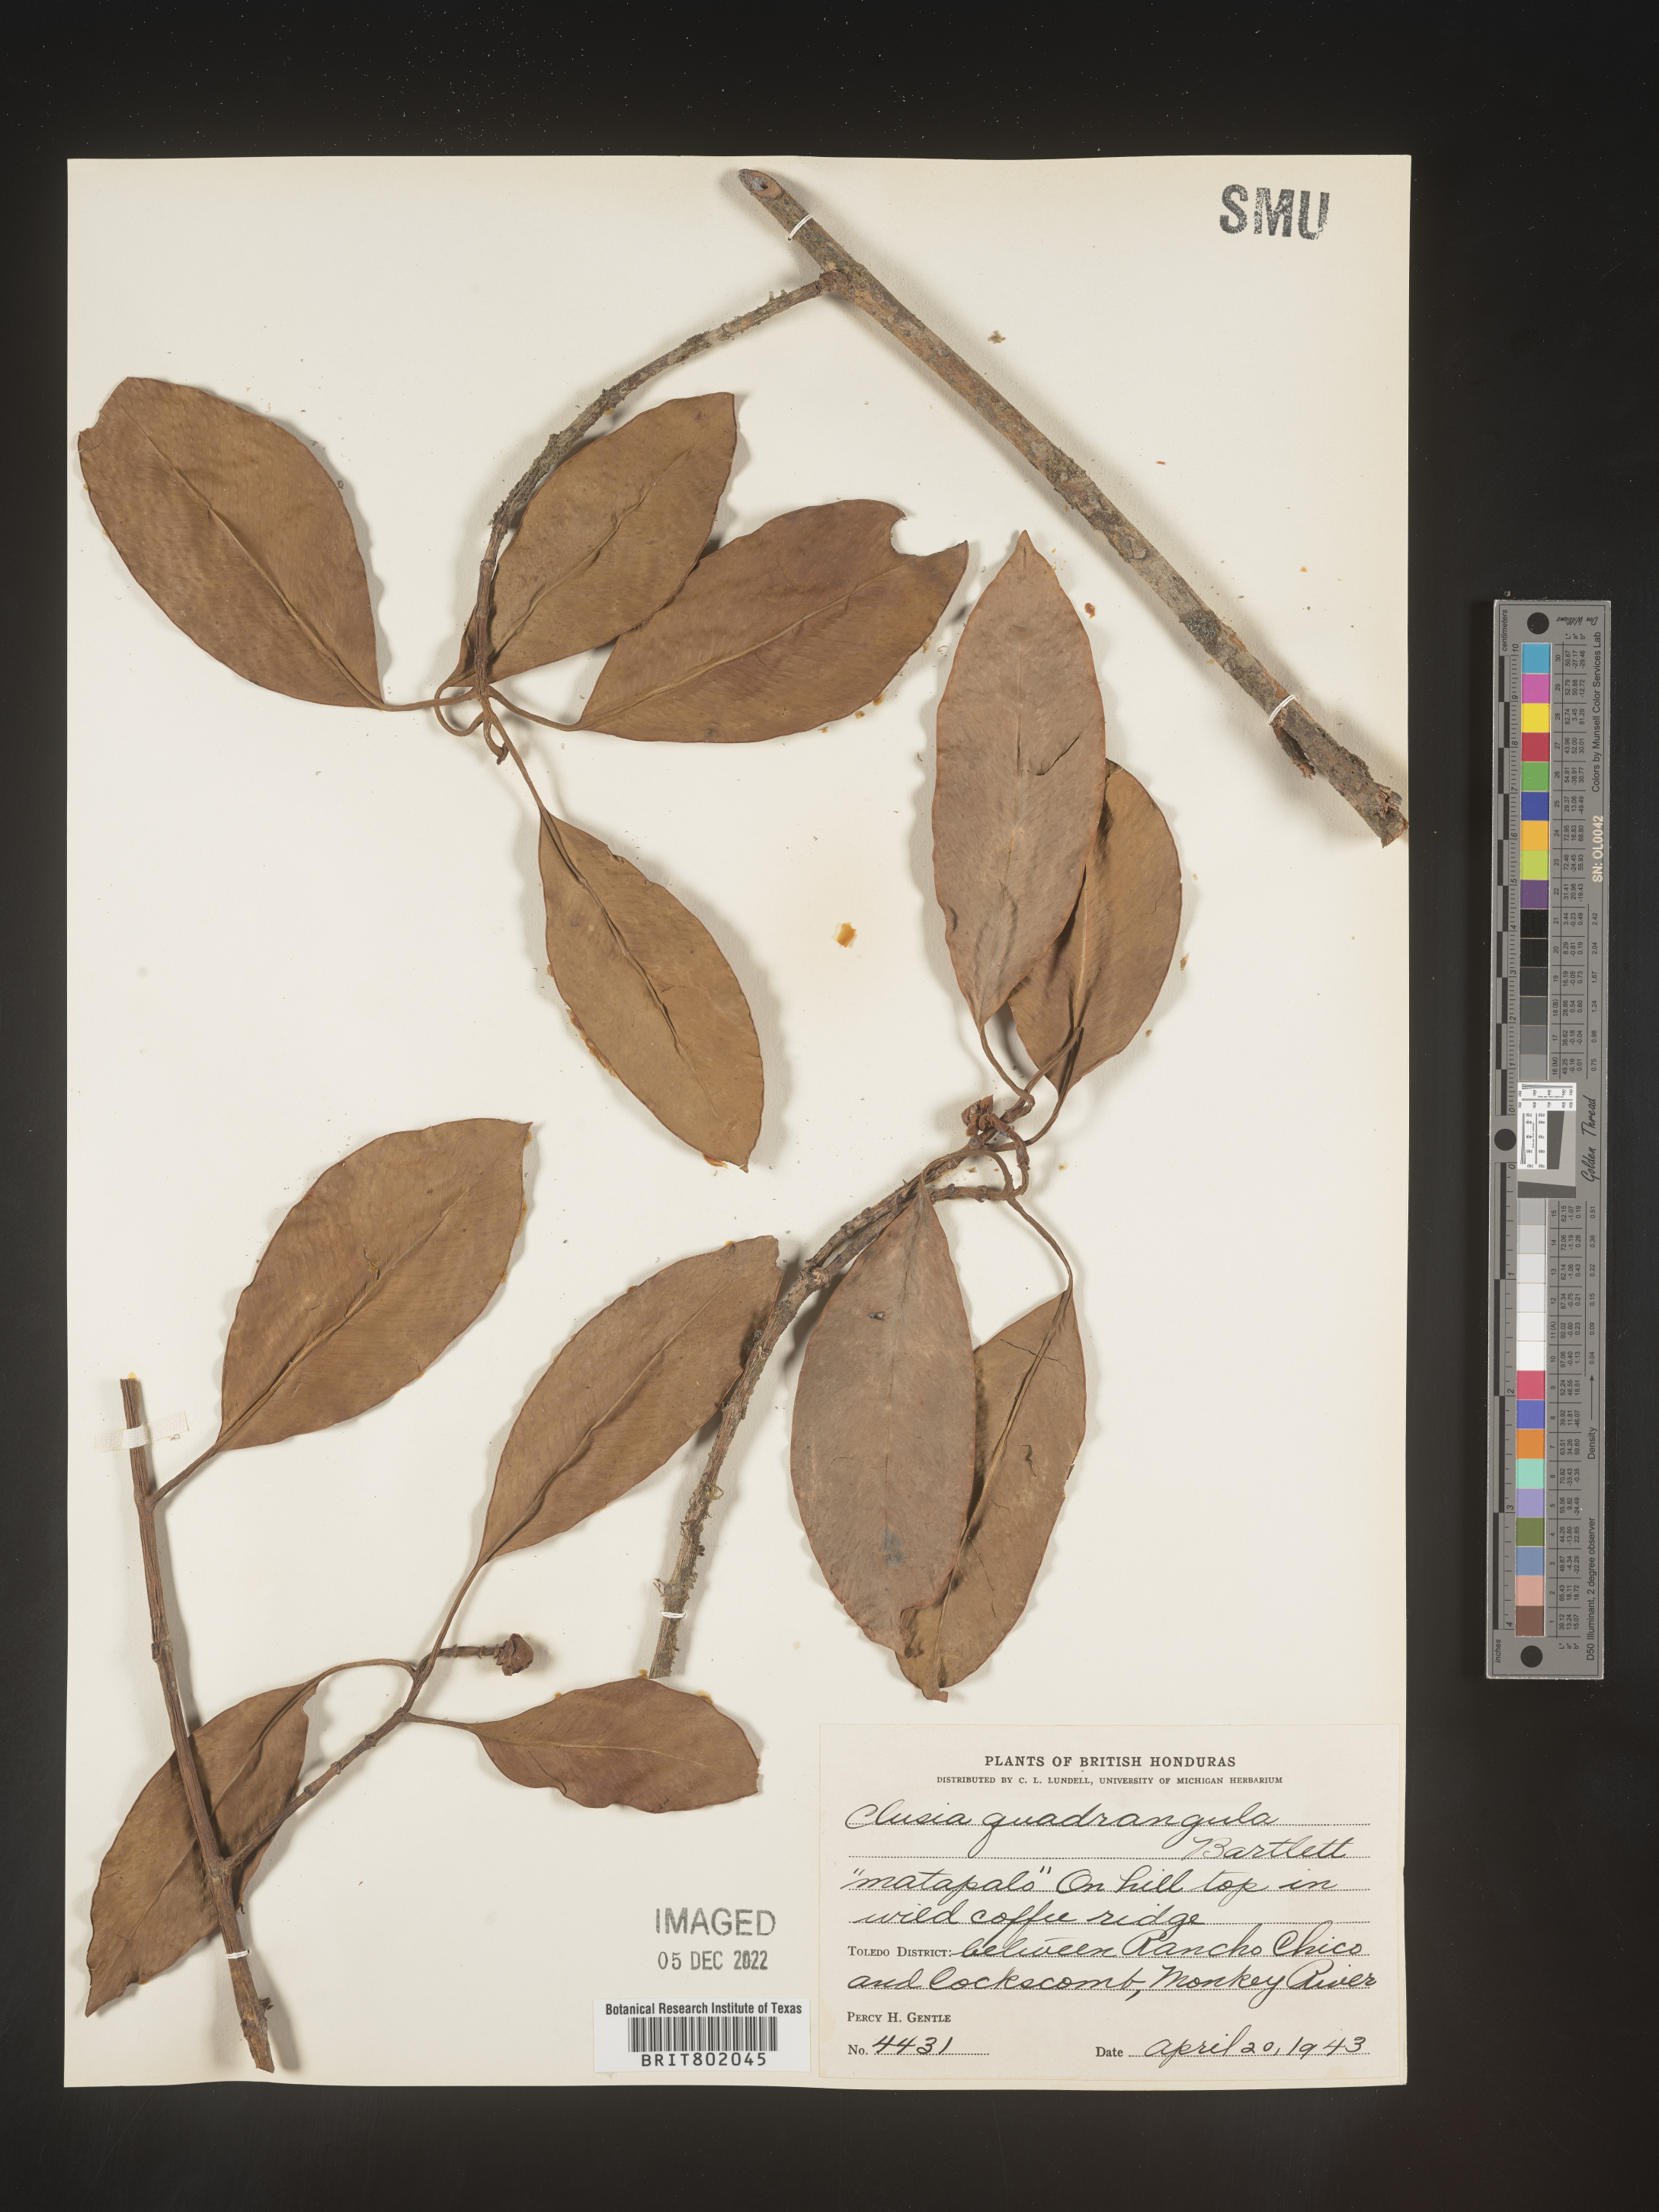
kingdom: Plantae
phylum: Tracheophyta
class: Magnoliopsida
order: Malpighiales
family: Clusiaceae
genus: Clusia
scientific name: Clusia
